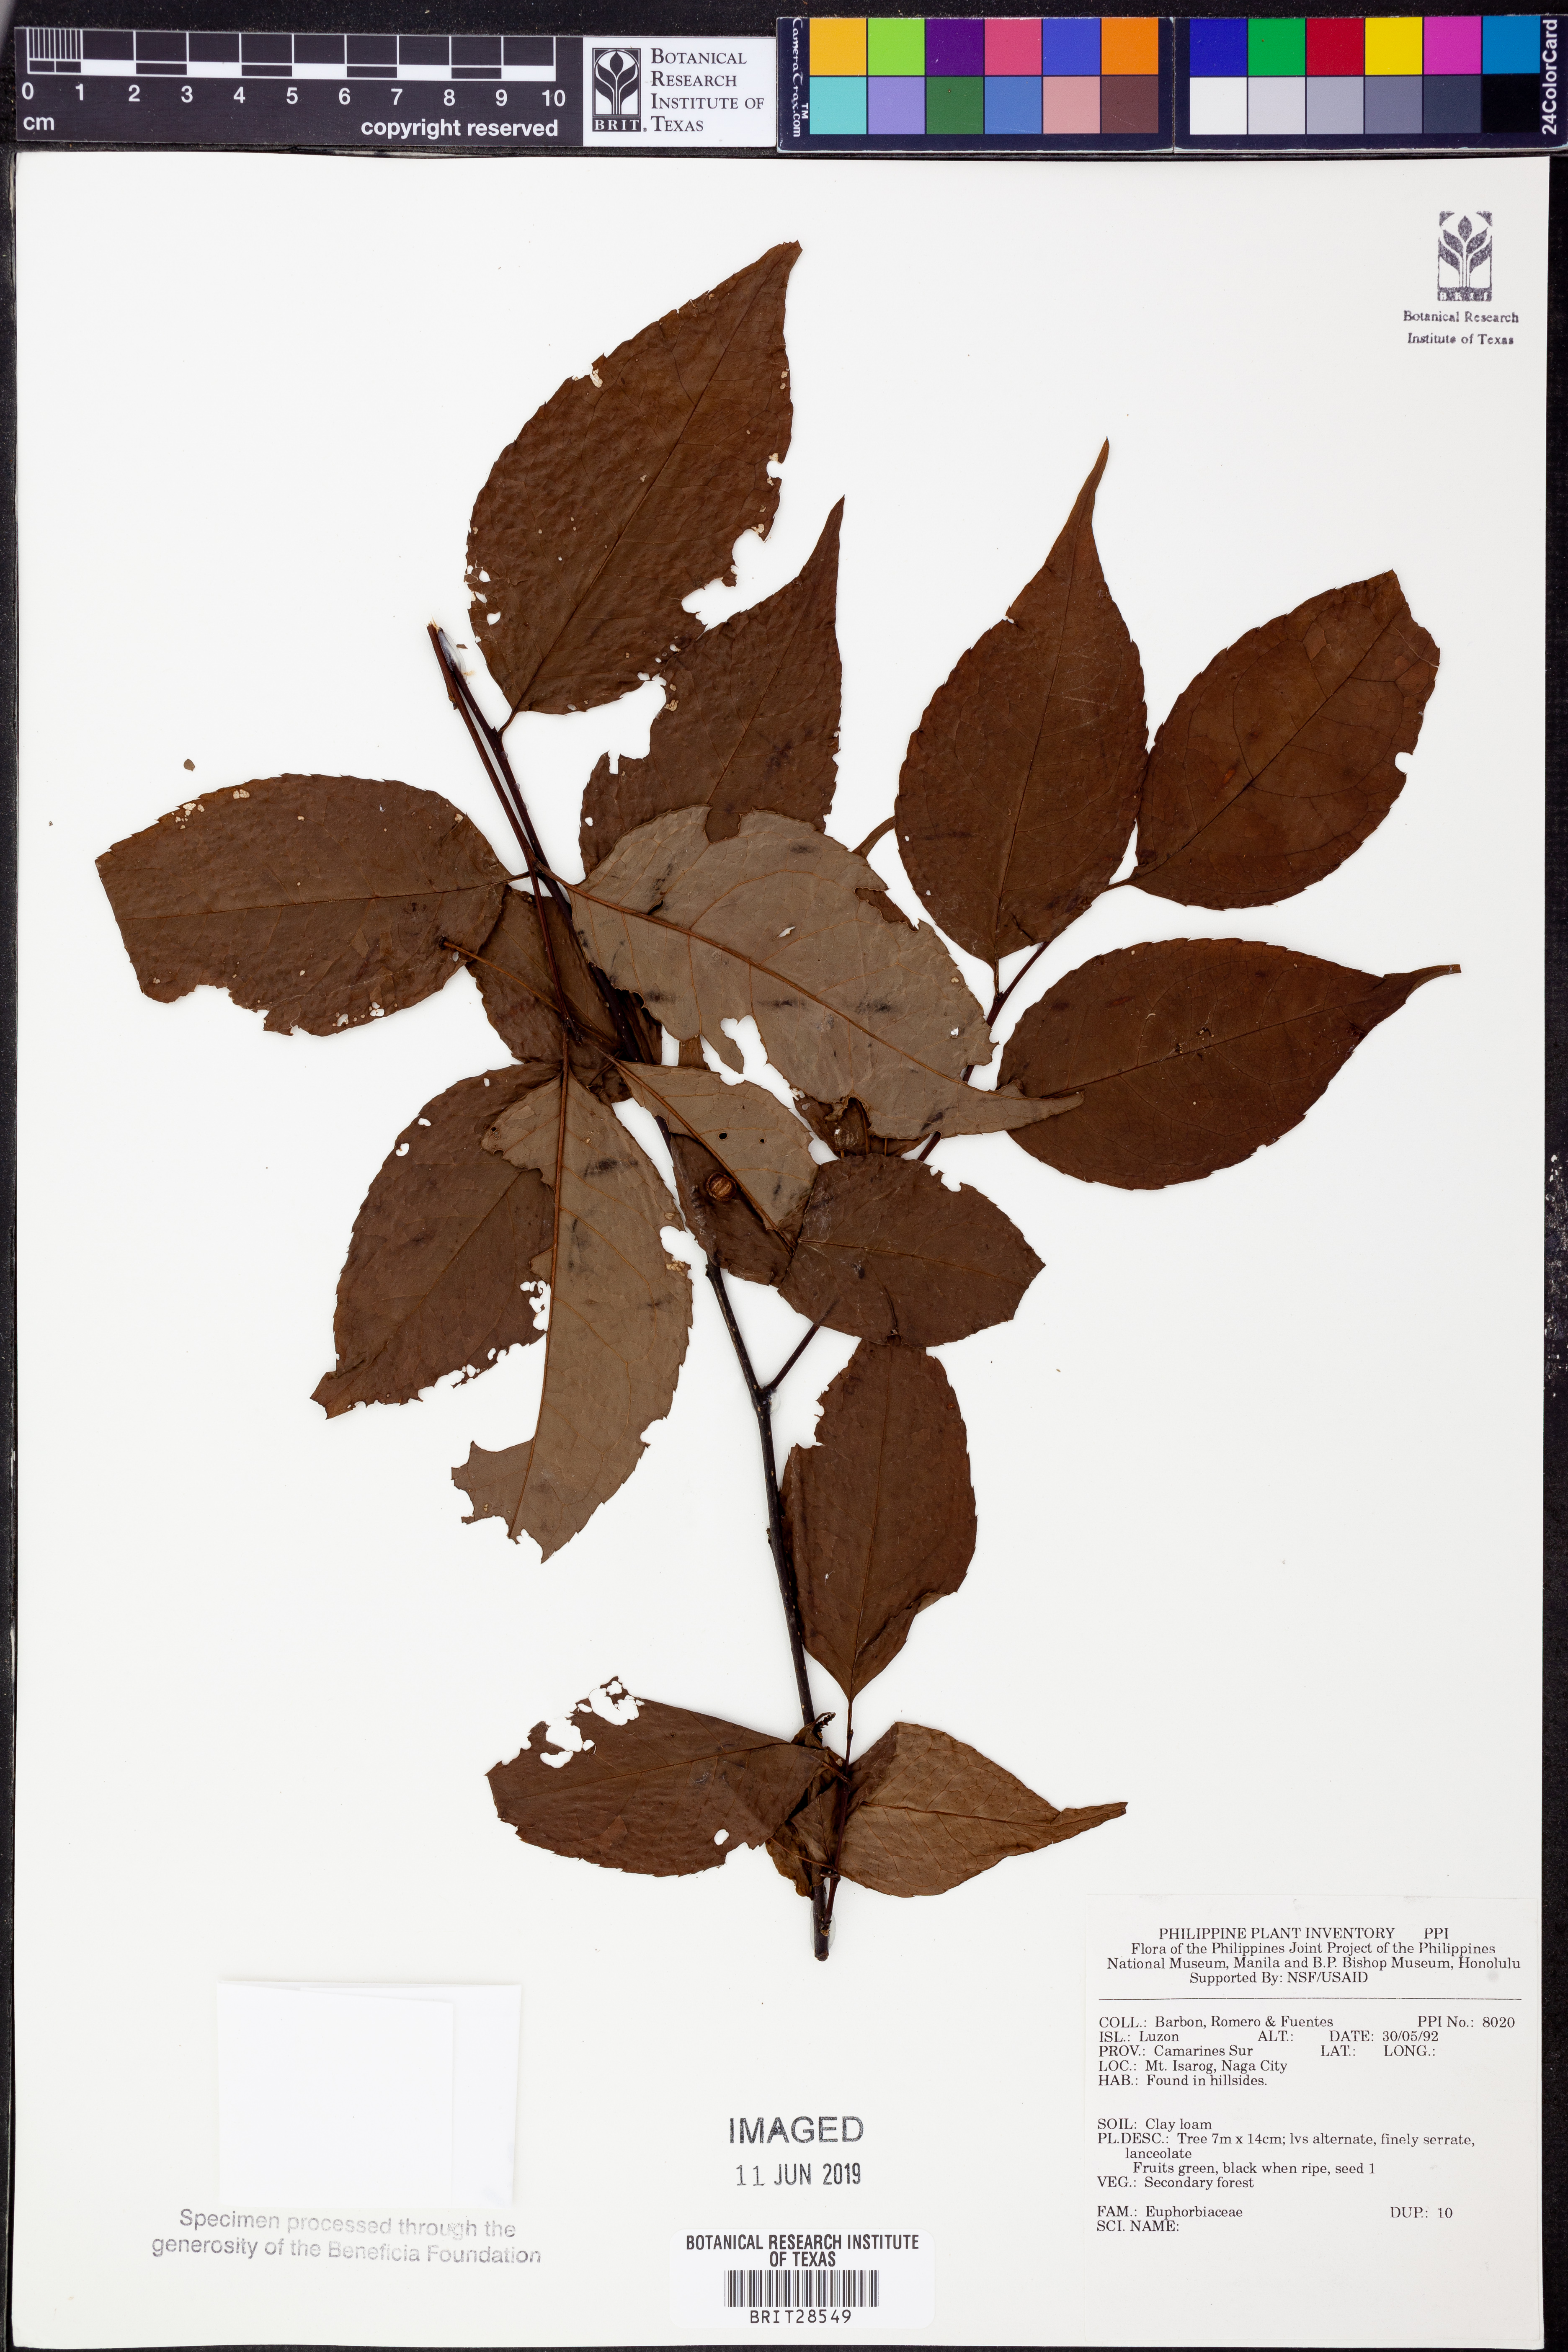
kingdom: Plantae
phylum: Tracheophyta
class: Magnoliopsida
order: Malpighiales
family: Euphorbiaceae
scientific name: Euphorbiaceae
